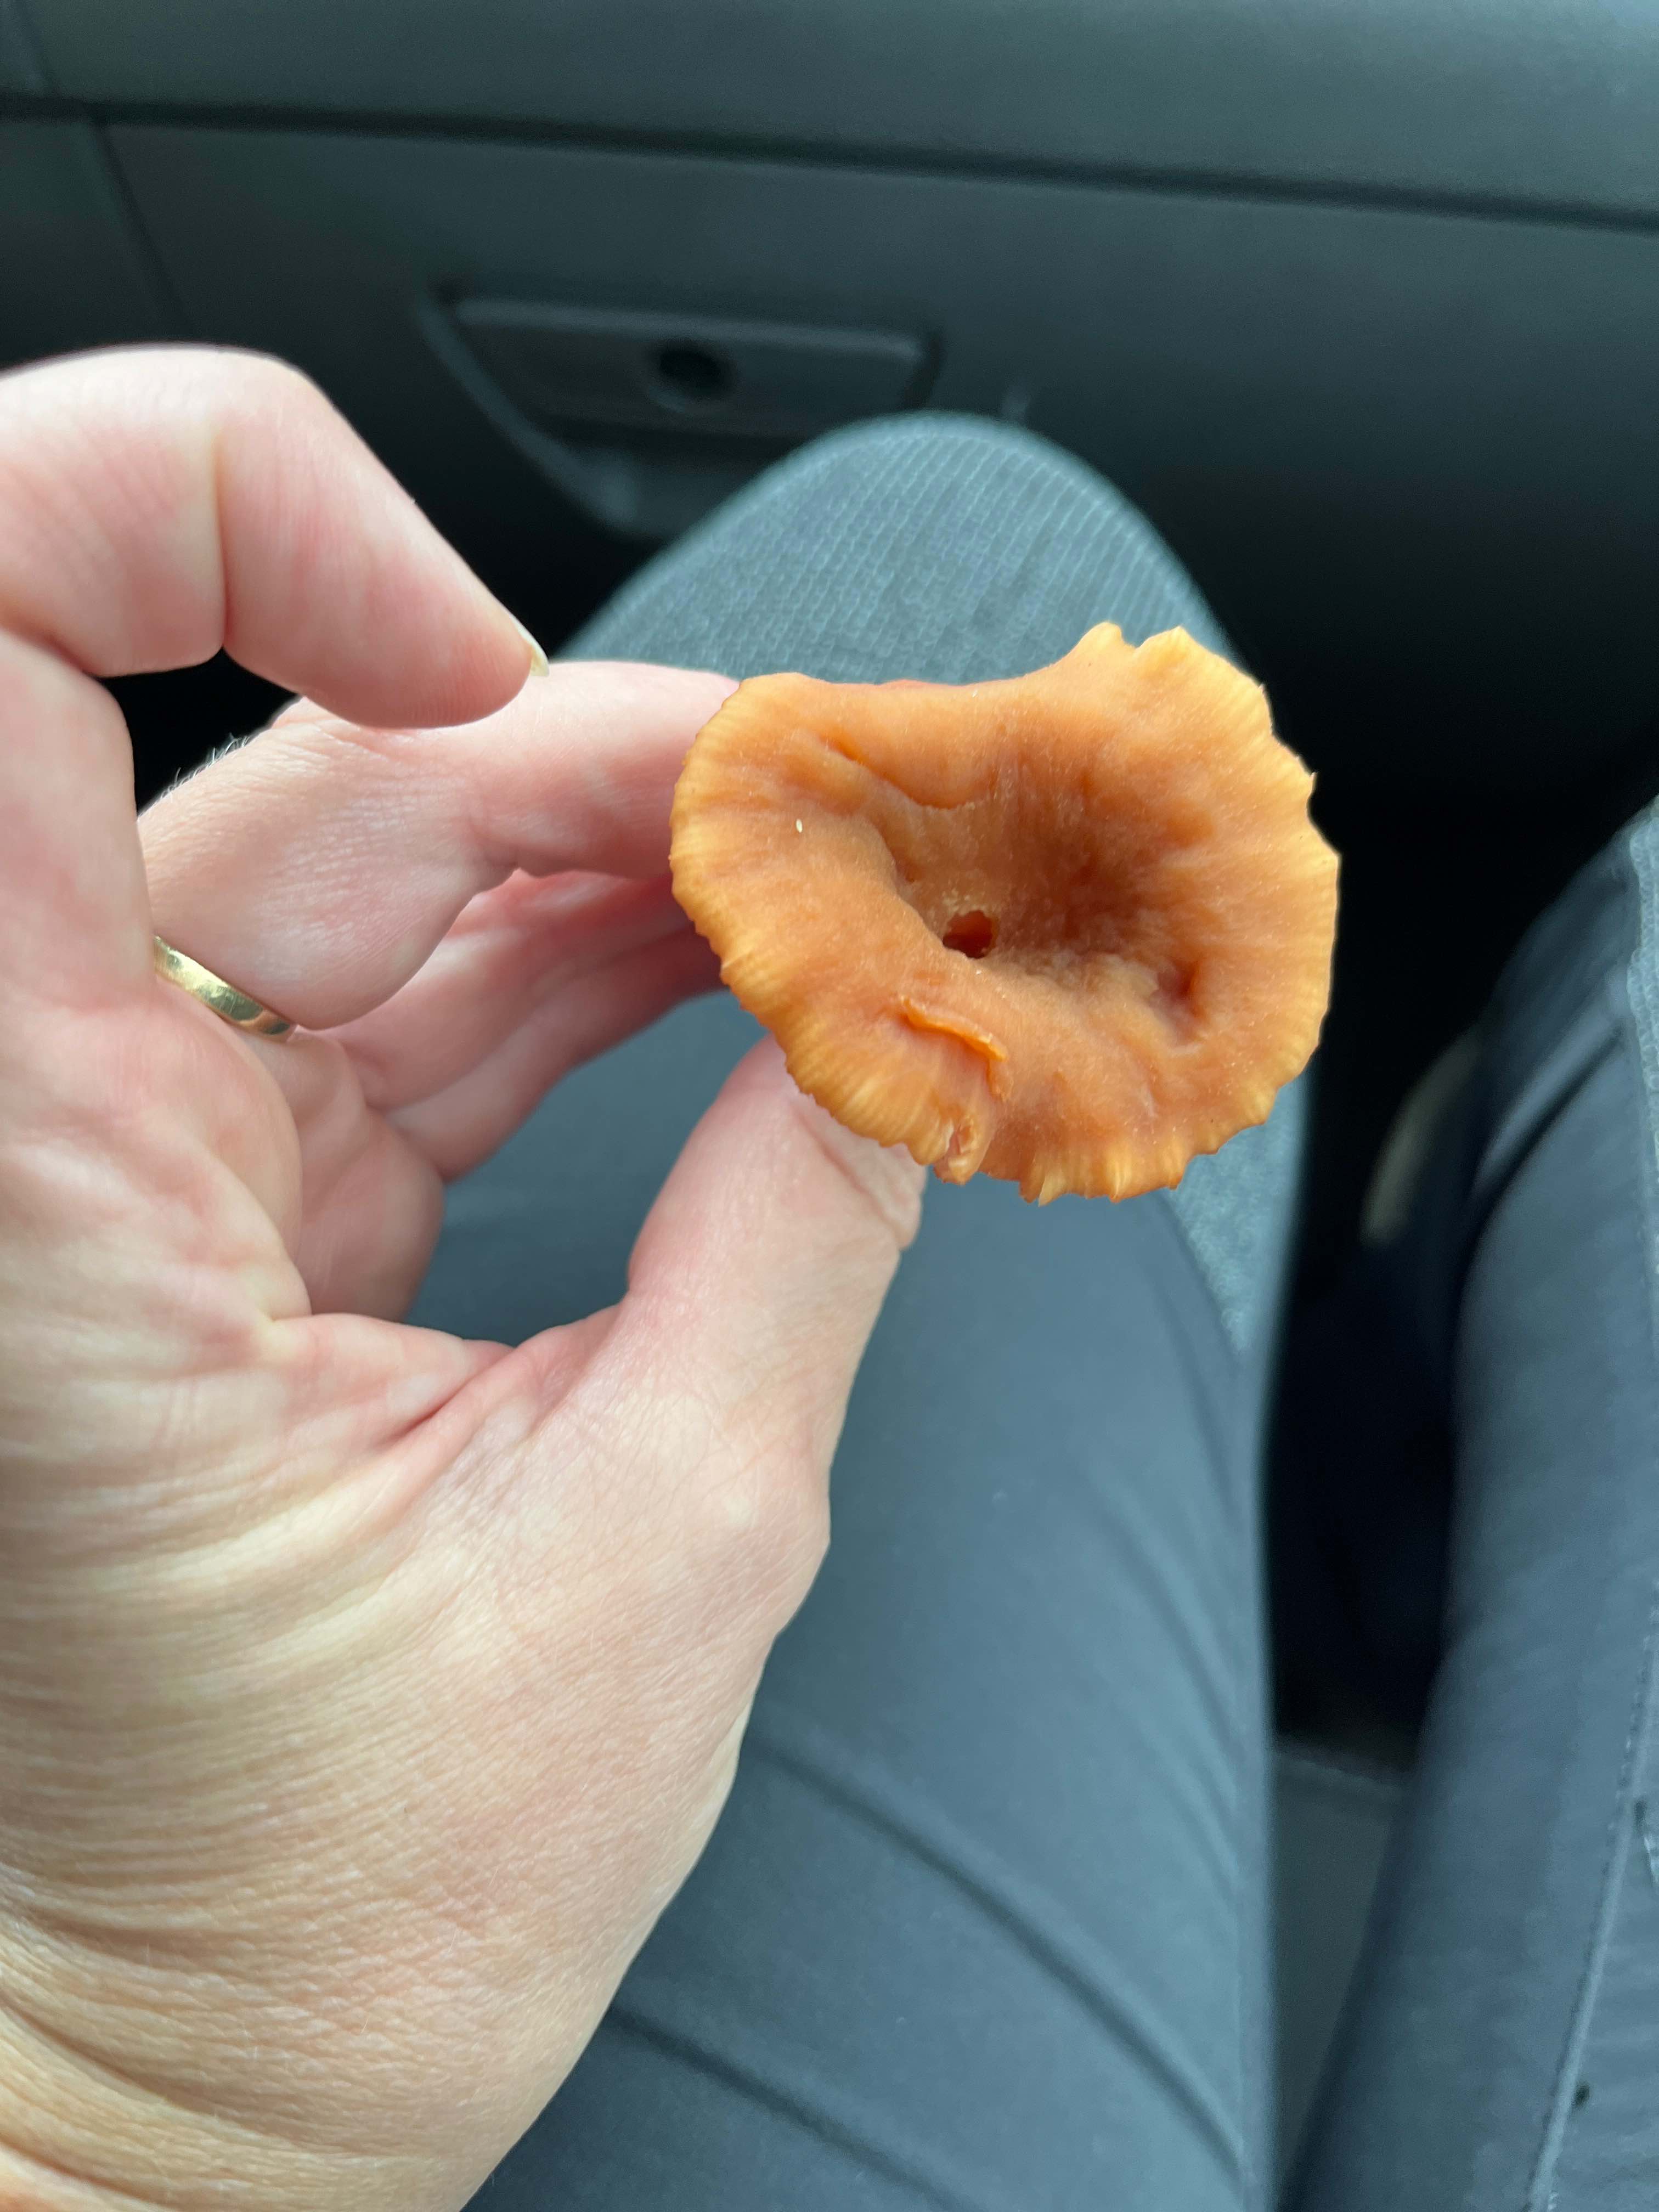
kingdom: Fungi
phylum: Basidiomycota
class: Agaricomycetes
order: Agaricales
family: Hydnangiaceae
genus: Laccaria
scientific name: Laccaria
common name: ametysthat
